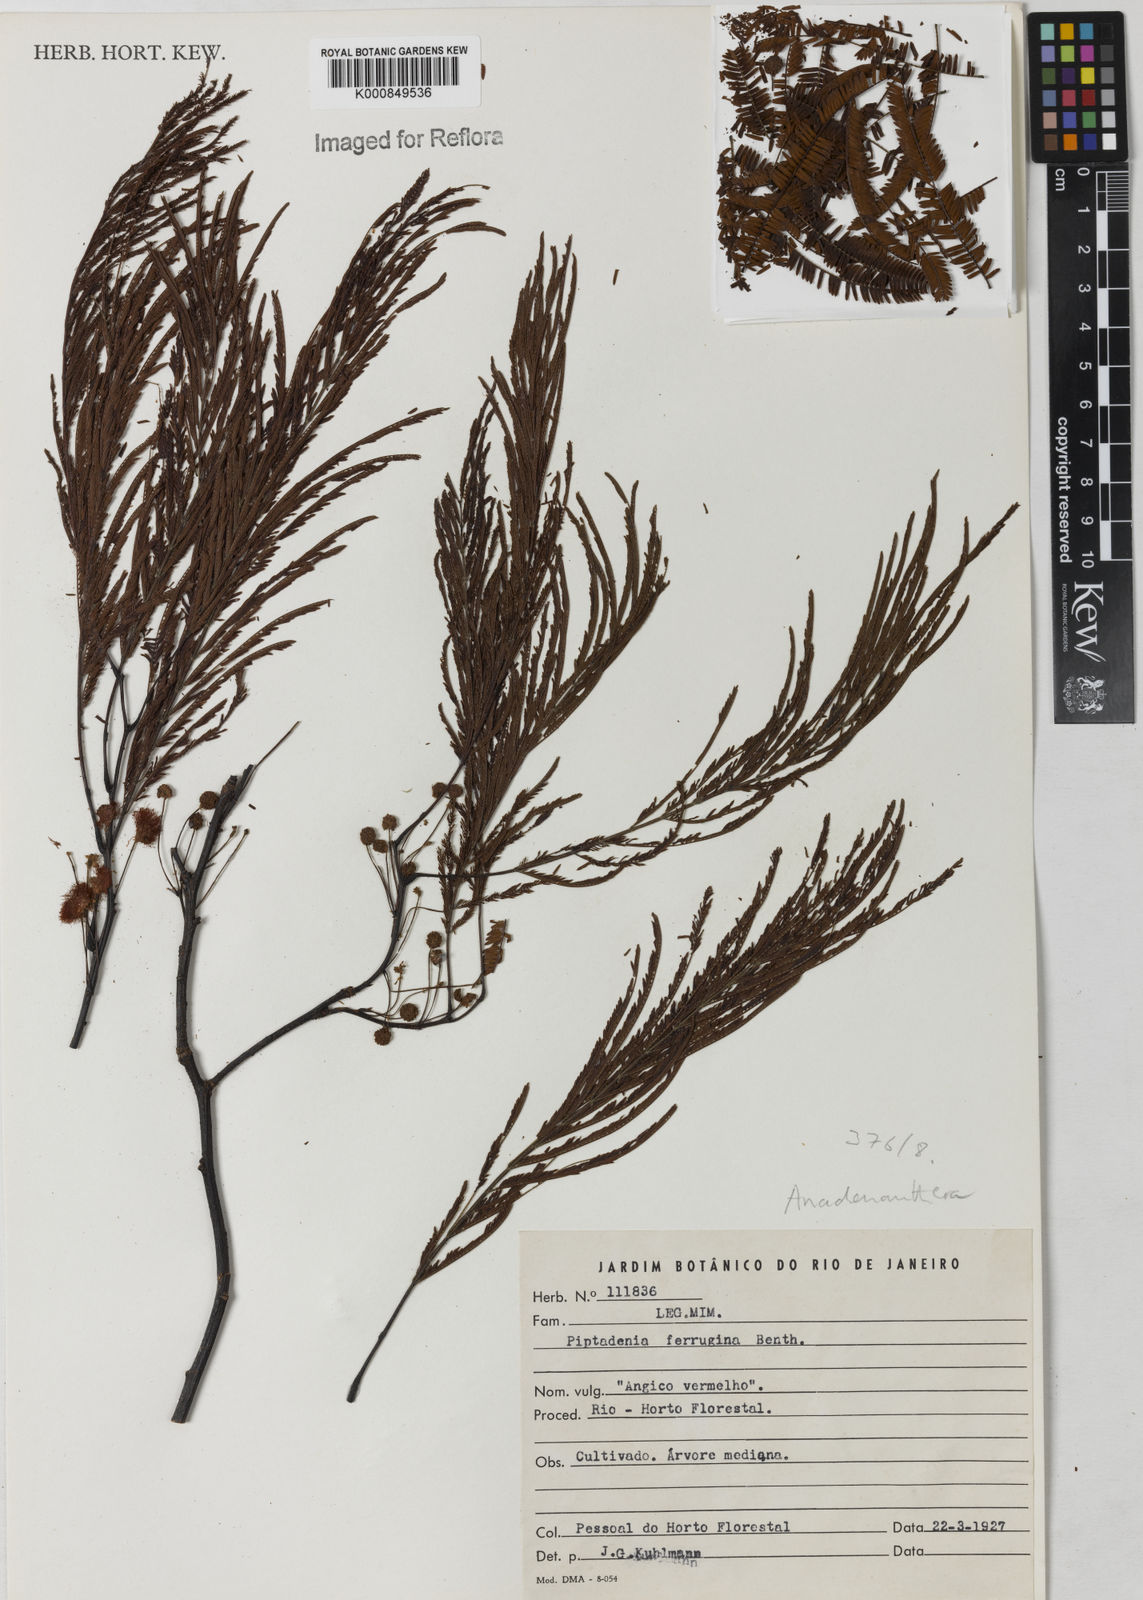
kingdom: Plantae
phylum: Tracheophyta
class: Magnoliopsida
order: Fabales
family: Fabaceae
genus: Anadenanthera
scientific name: Anadenanthera
